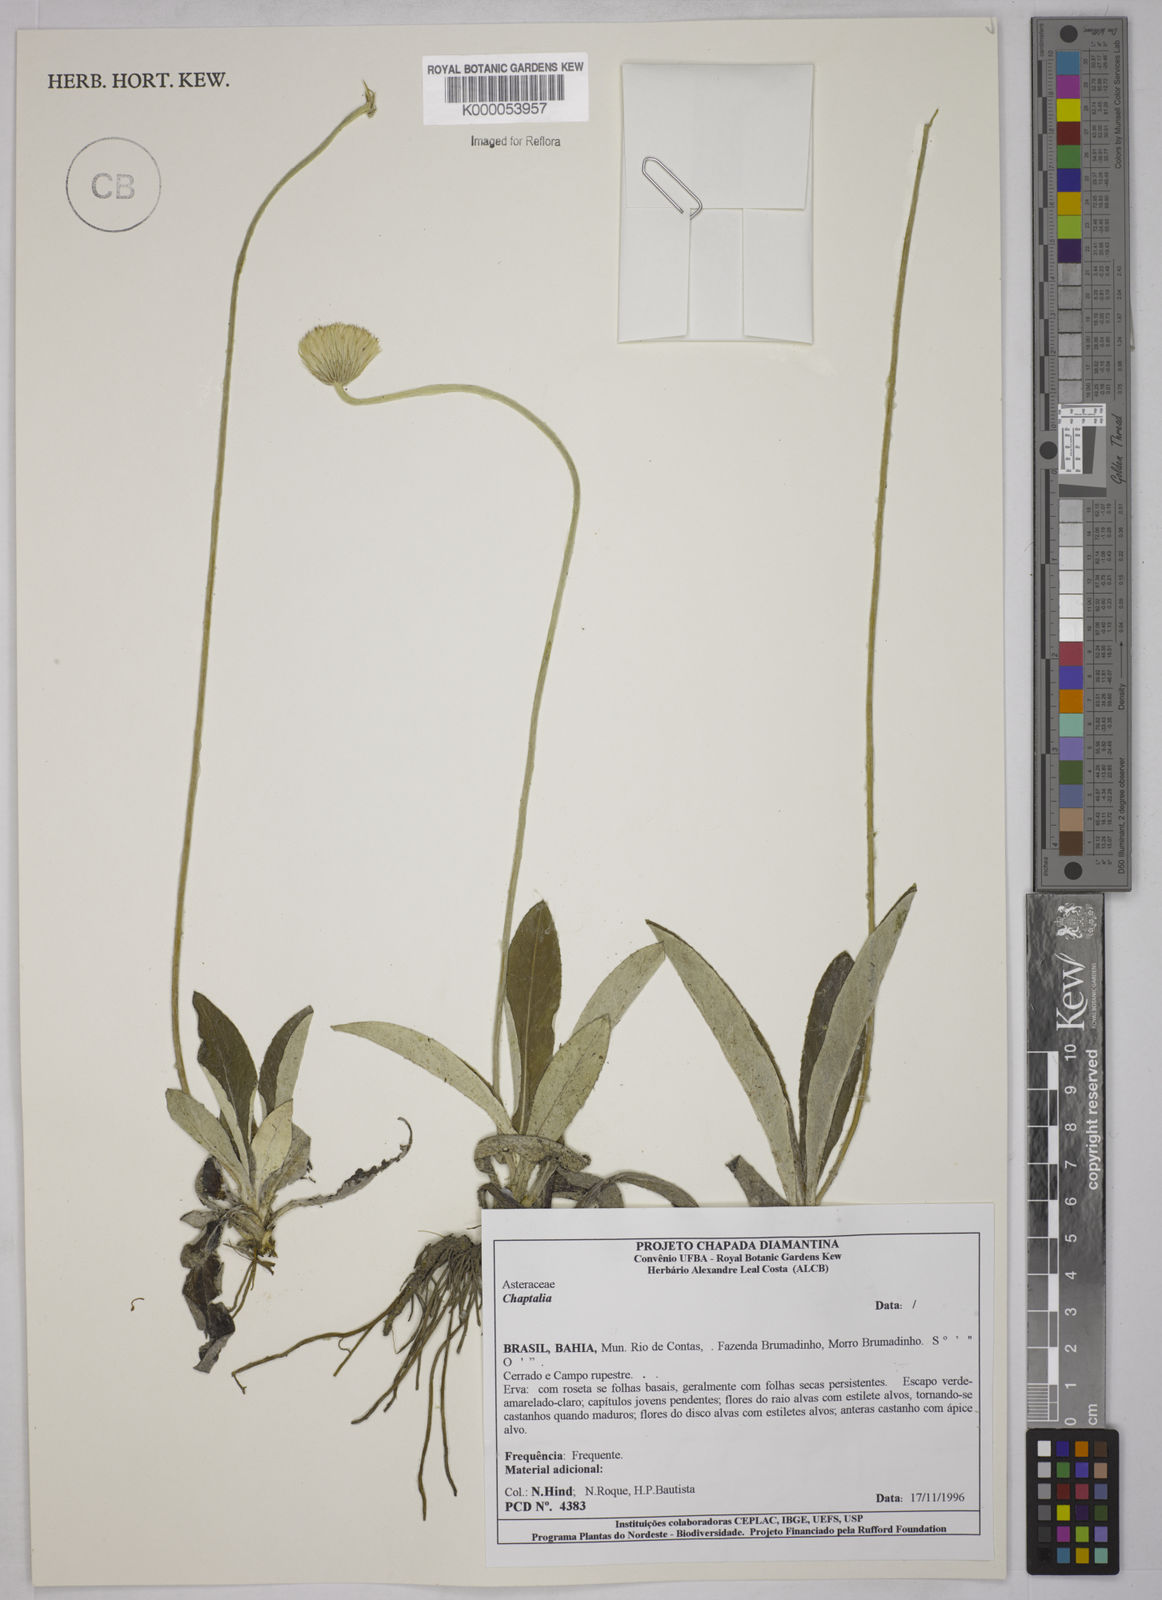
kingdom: Plantae
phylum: Tracheophyta
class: Magnoliopsida
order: Asterales
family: Asteraceae
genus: Chaptalia
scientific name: Chaptalia integerrima
